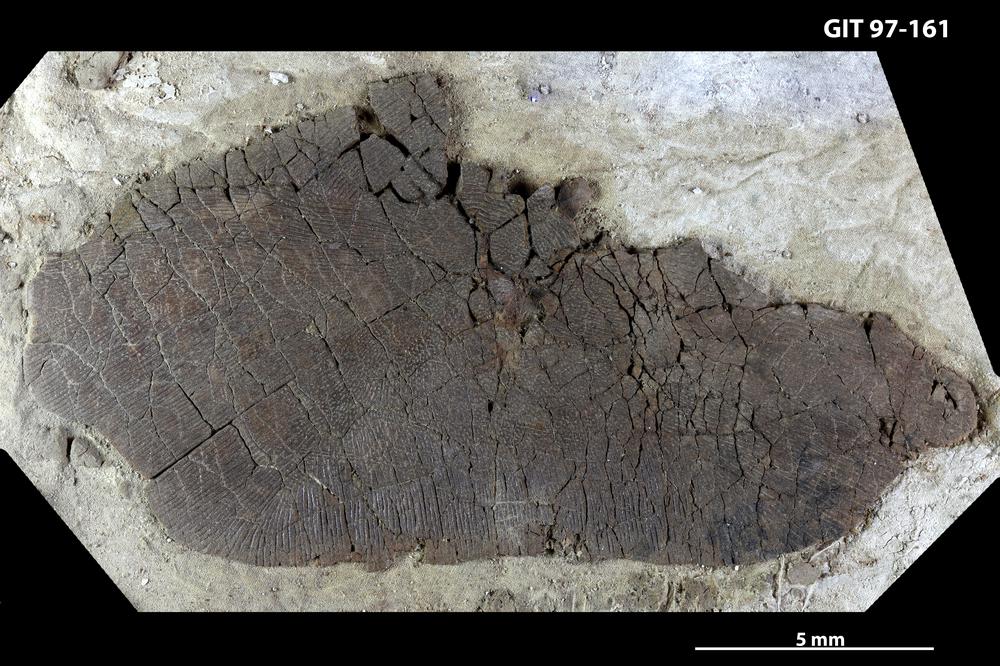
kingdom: Animalia
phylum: Chordata
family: Holonematidae
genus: Holonema
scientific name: Holonema
